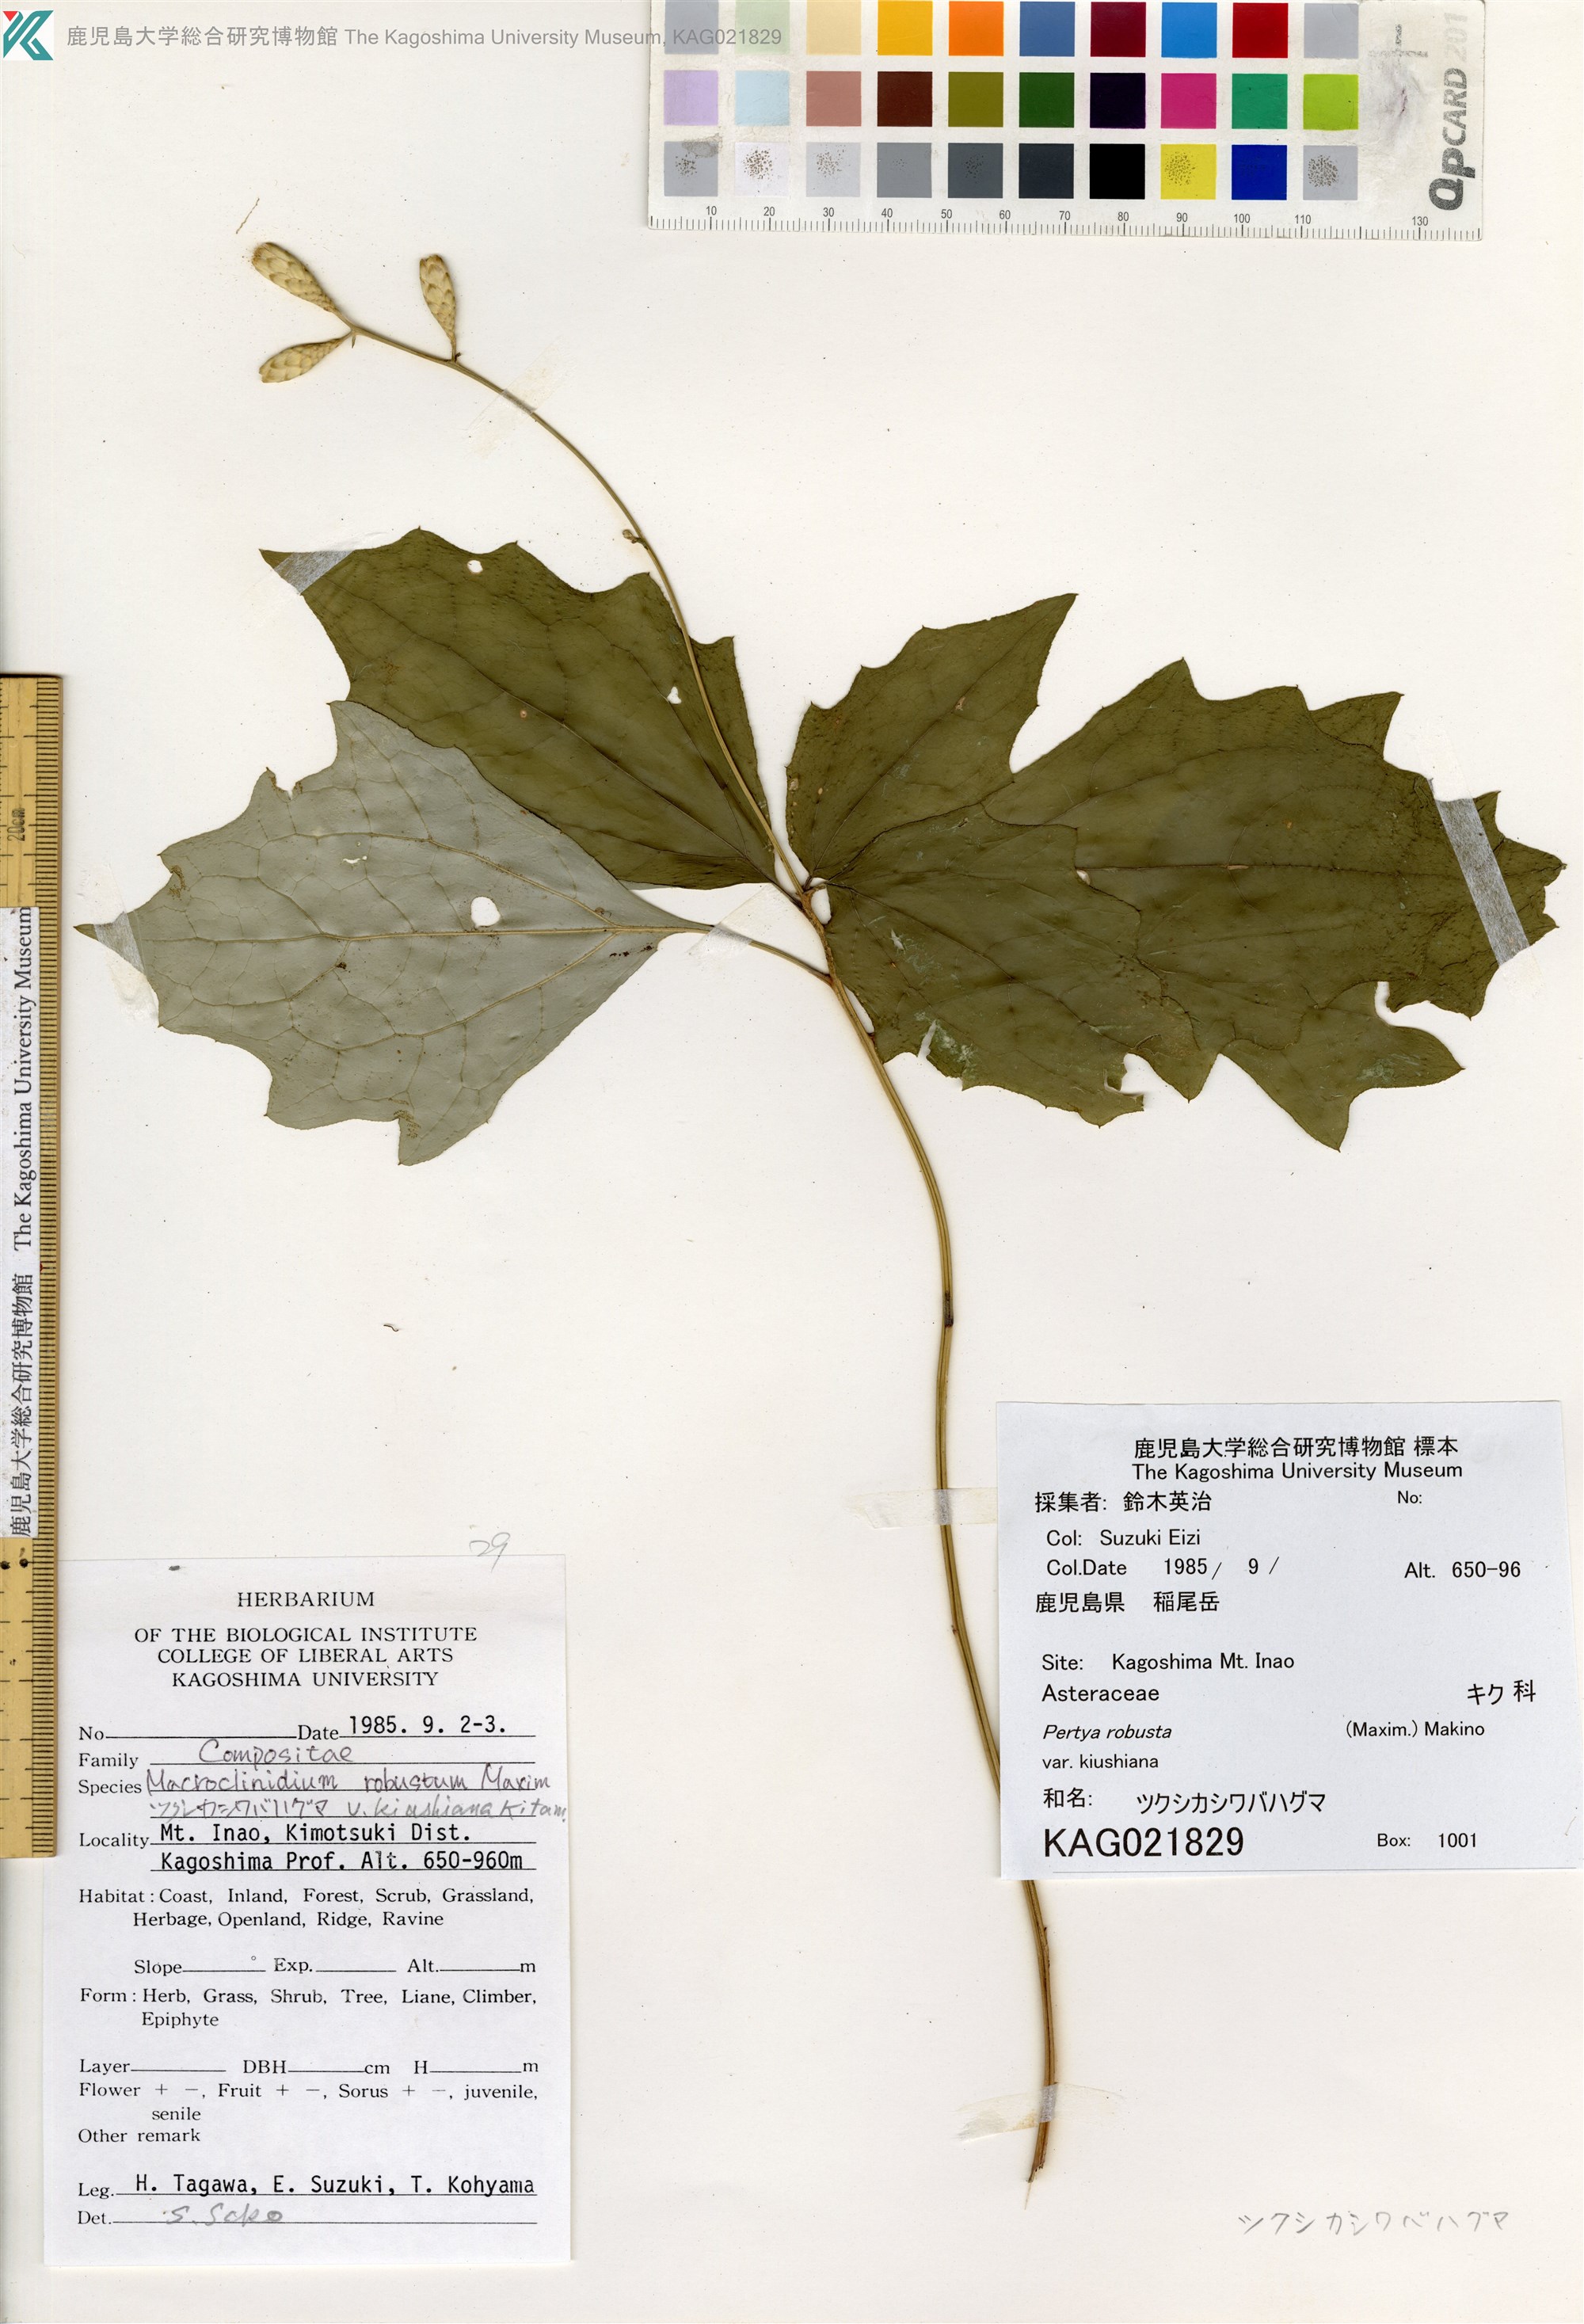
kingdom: Plantae
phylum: Tracheophyta
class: Magnoliopsida
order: Asterales
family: Asteraceae
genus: Pertya
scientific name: Pertya robusta
